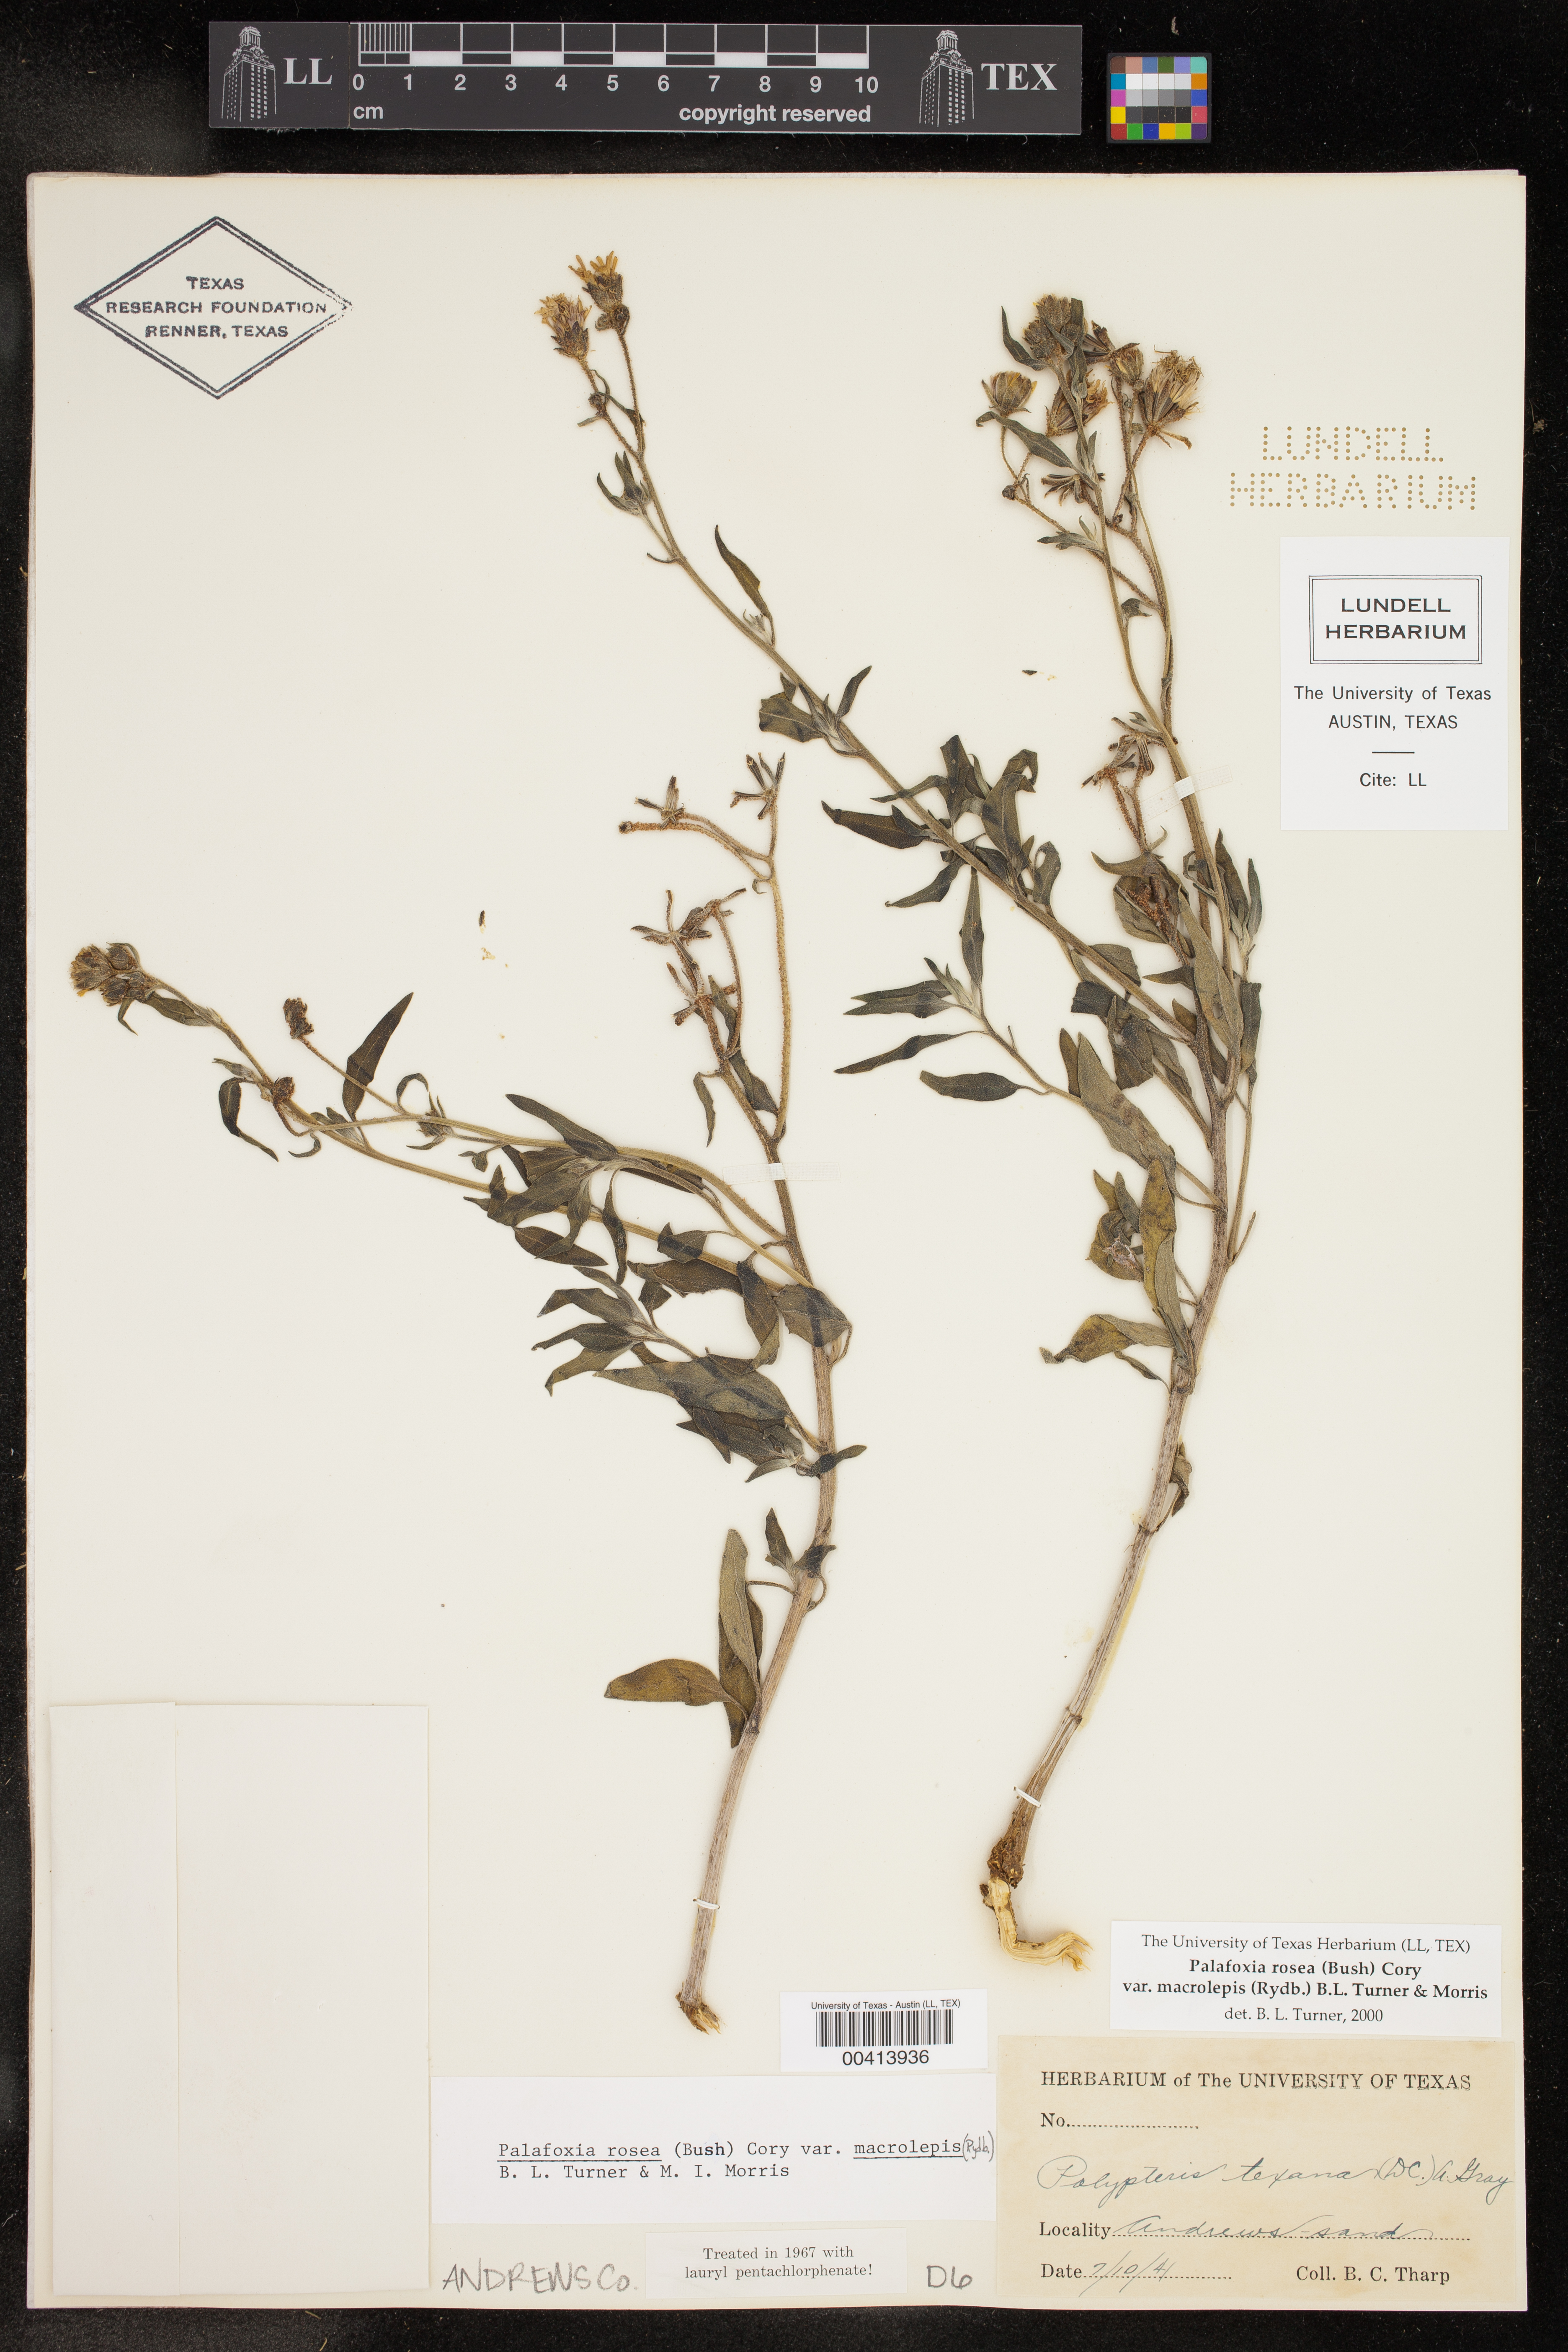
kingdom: Plantae
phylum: Tracheophyta
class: Magnoliopsida
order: Asterales
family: Asteraceae
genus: Palafoxia
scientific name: Palafoxia rosea
